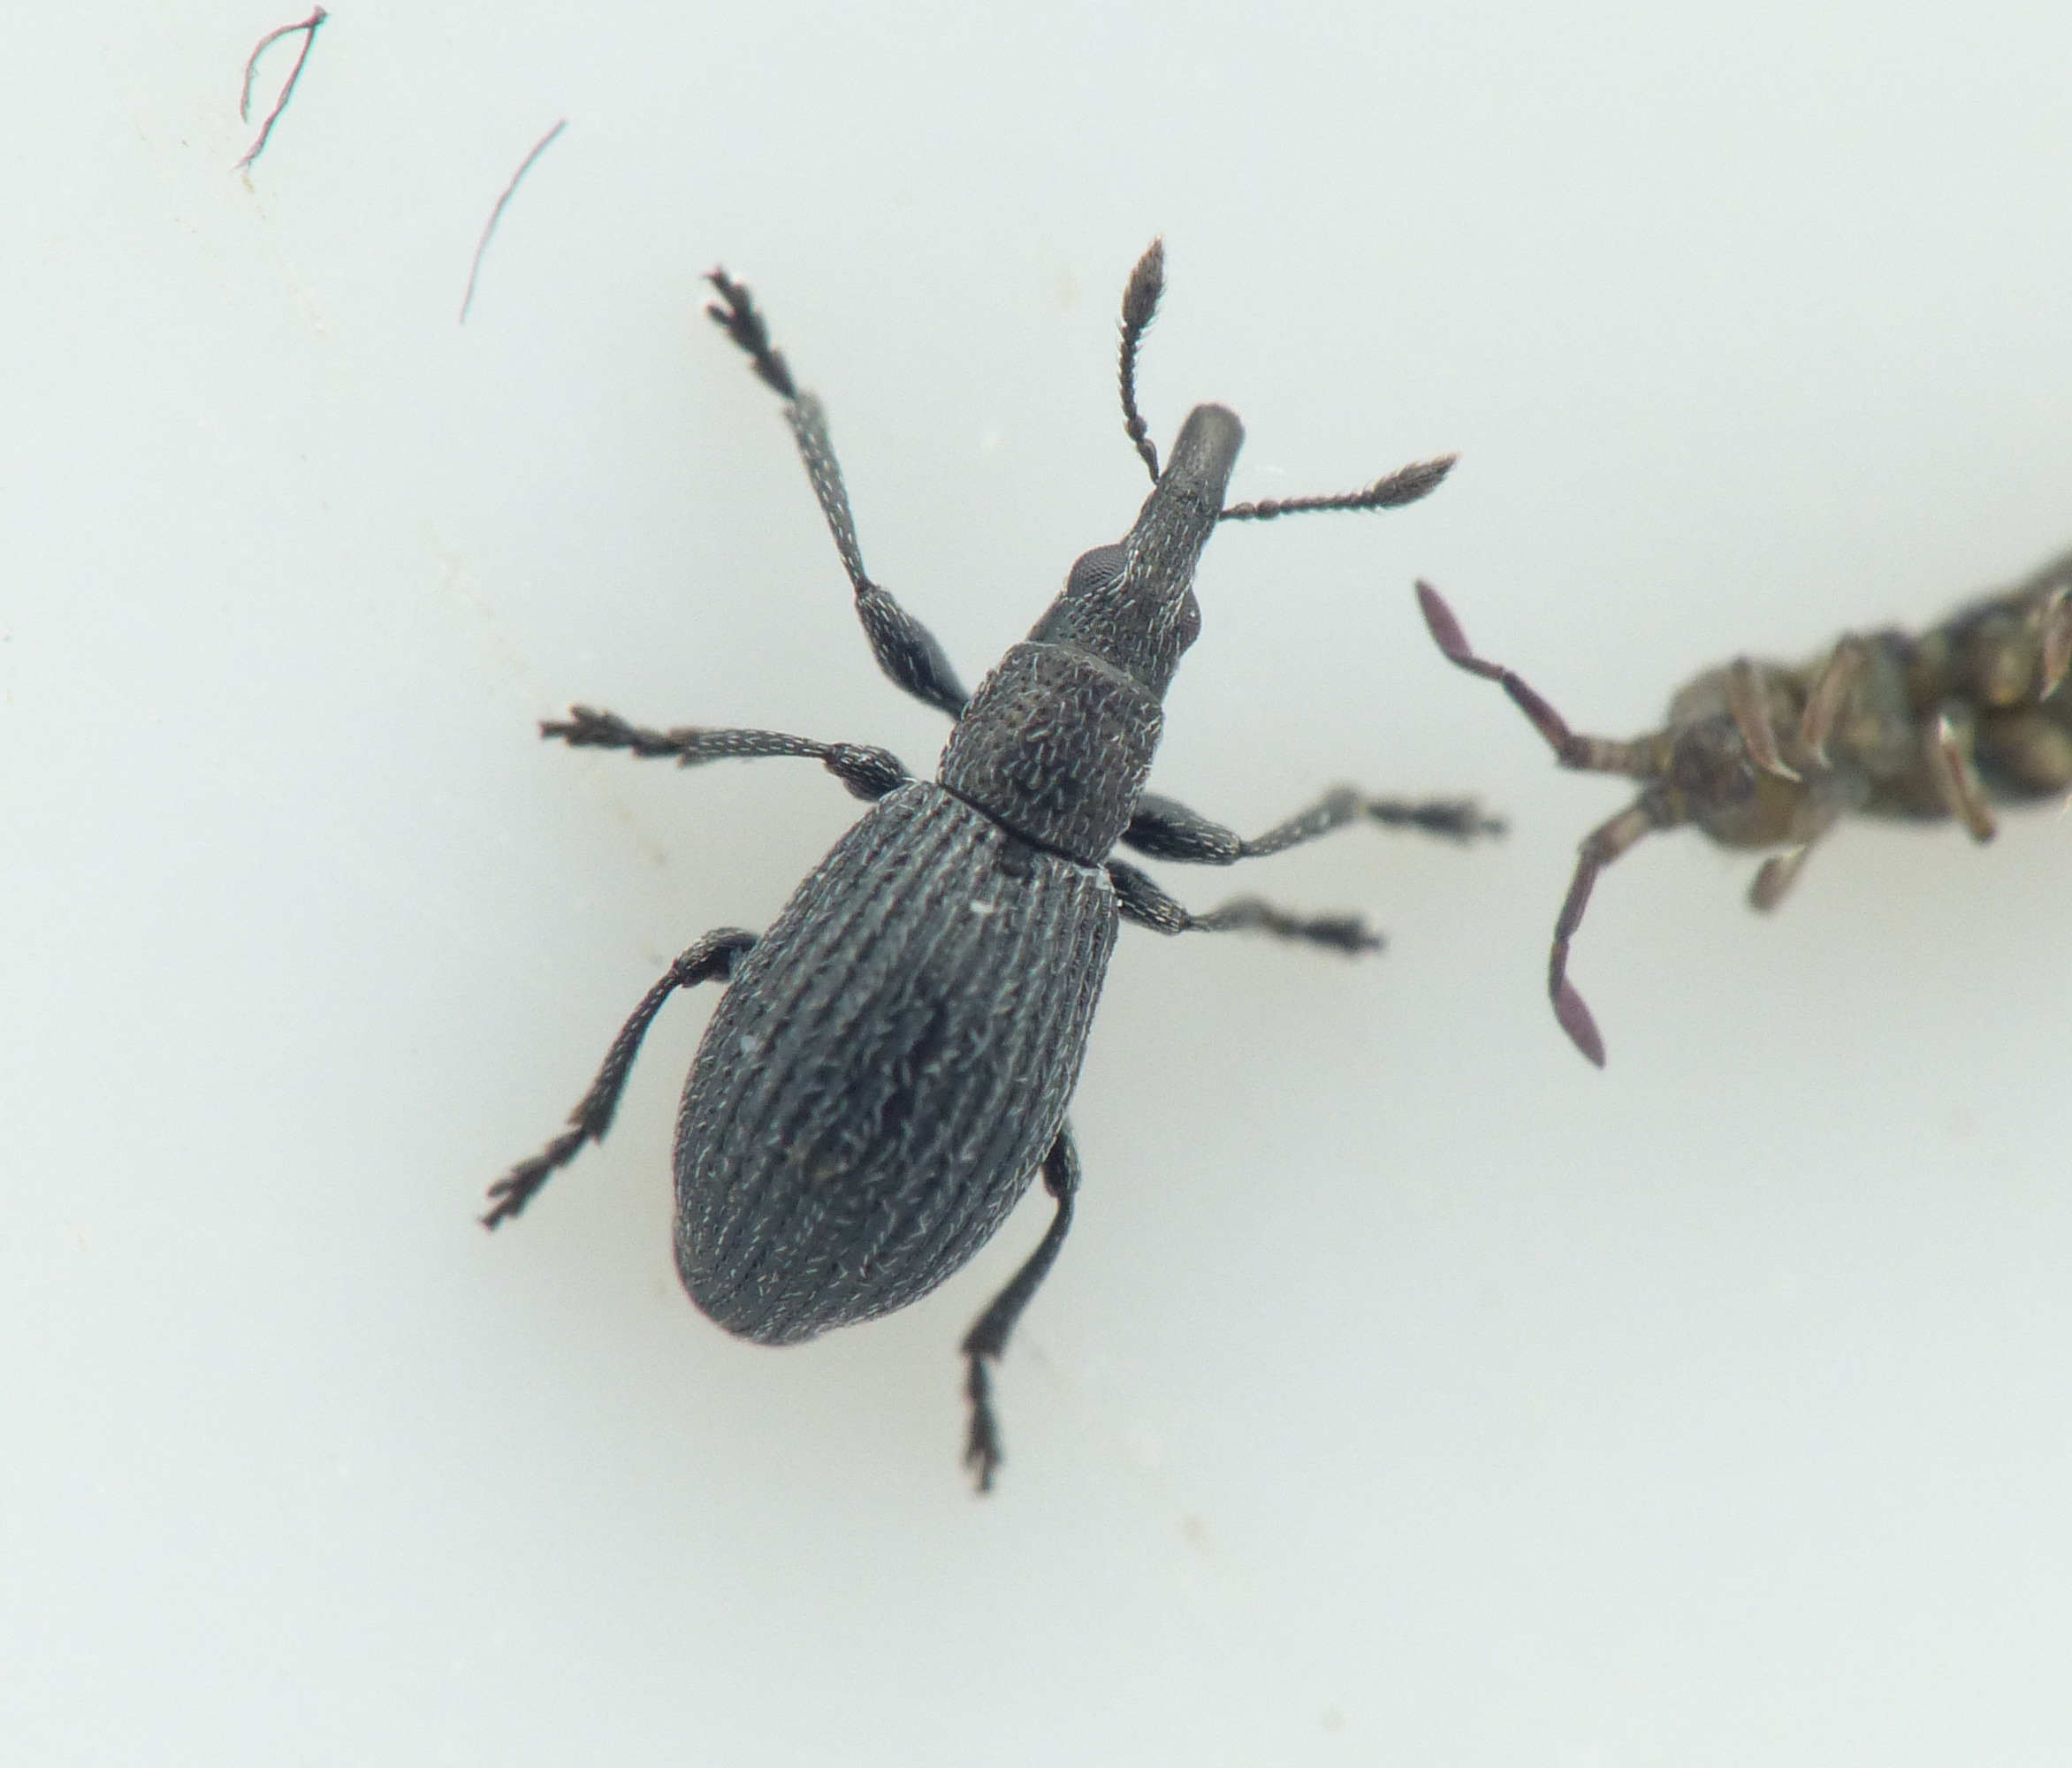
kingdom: Animalia
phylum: Arthropoda
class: Insecta
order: Coleoptera
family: Brentidae
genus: Perapion
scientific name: Perapion curtirostre
